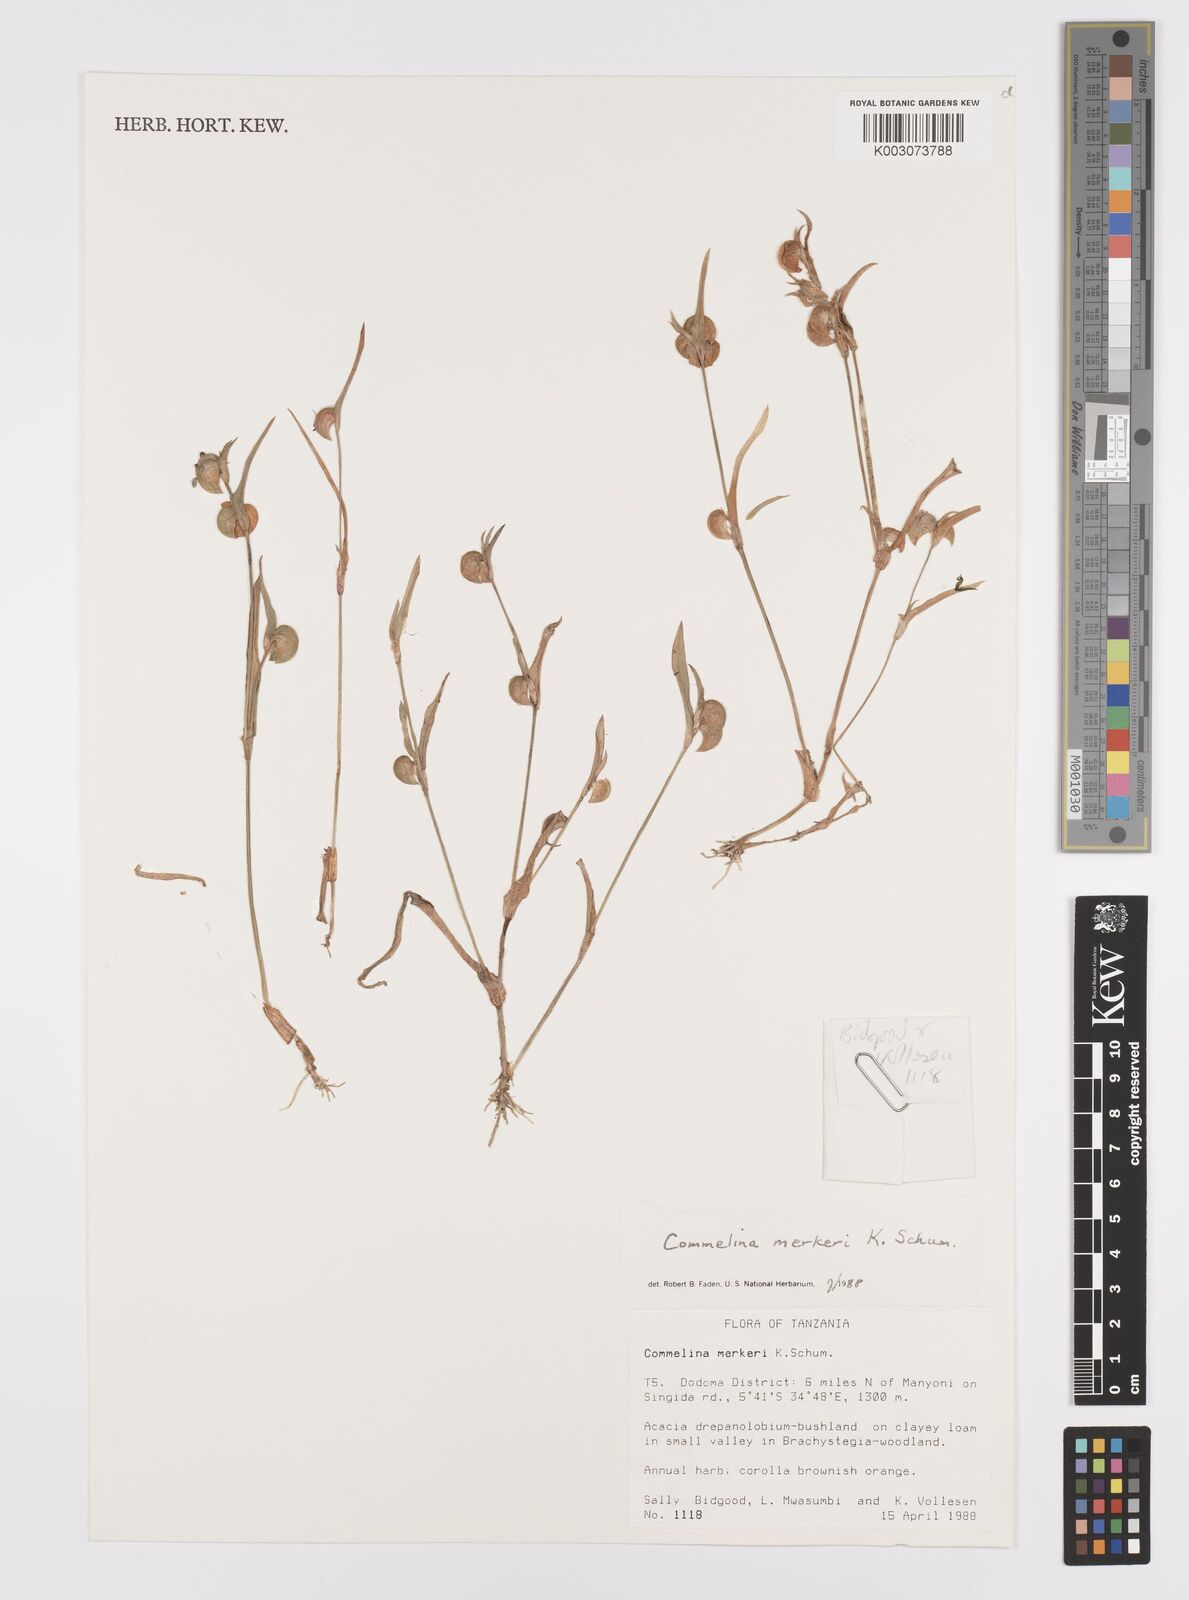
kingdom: Plantae
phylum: Tracheophyta
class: Liliopsida
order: Commelinales
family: Commelinaceae
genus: Commelina
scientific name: Commelina merkeri
